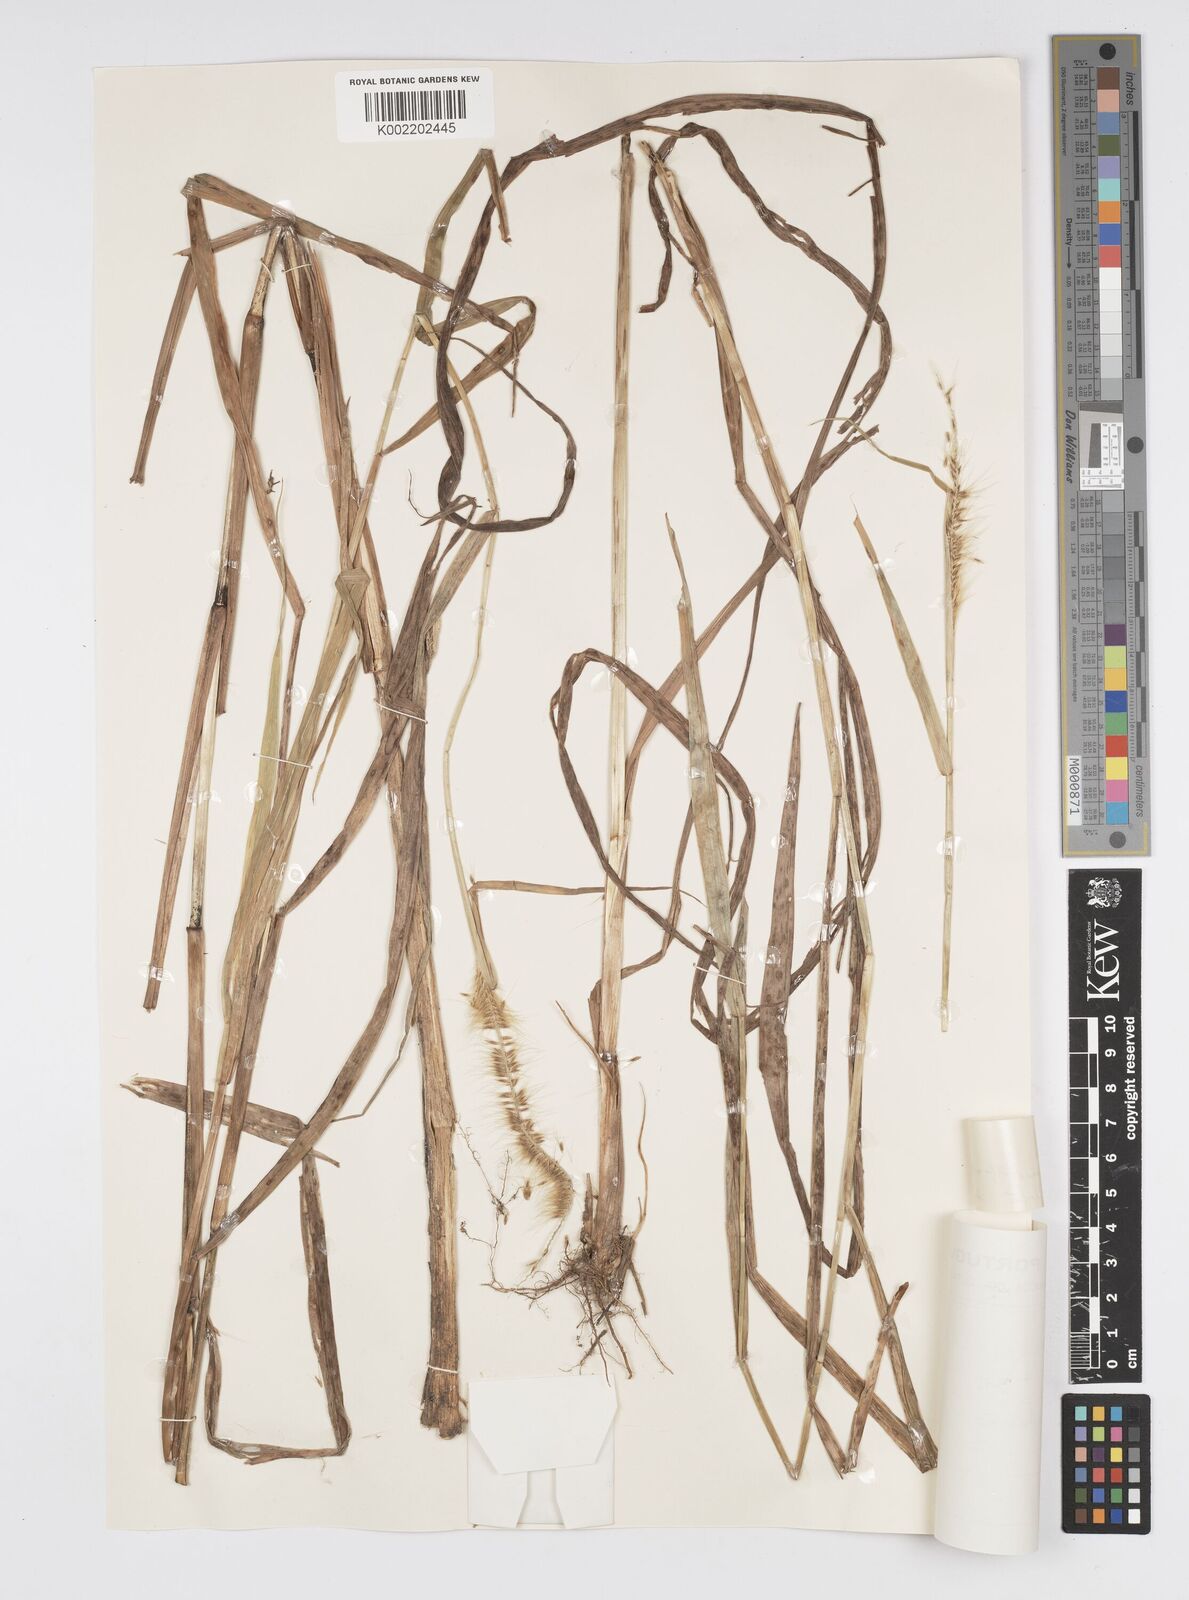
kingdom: Plantae
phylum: Tracheophyta
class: Liliopsida
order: Poales
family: Poaceae
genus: Cenchrus
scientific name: Cenchrus setosus
